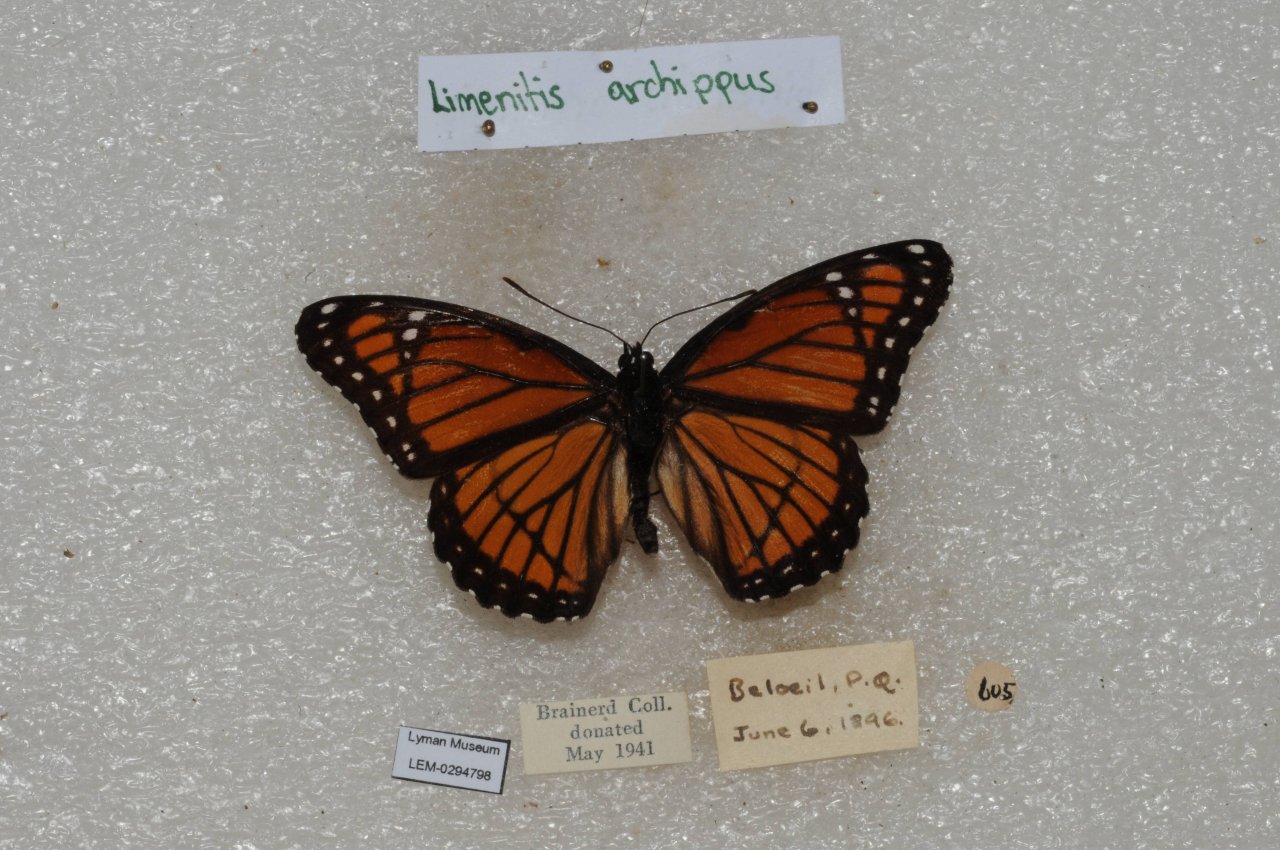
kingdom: Animalia
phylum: Arthropoda
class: Insecta
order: Lepidoptera
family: Nymphalidae
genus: Limenitis
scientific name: Limenitis archippus
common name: Viceroy
